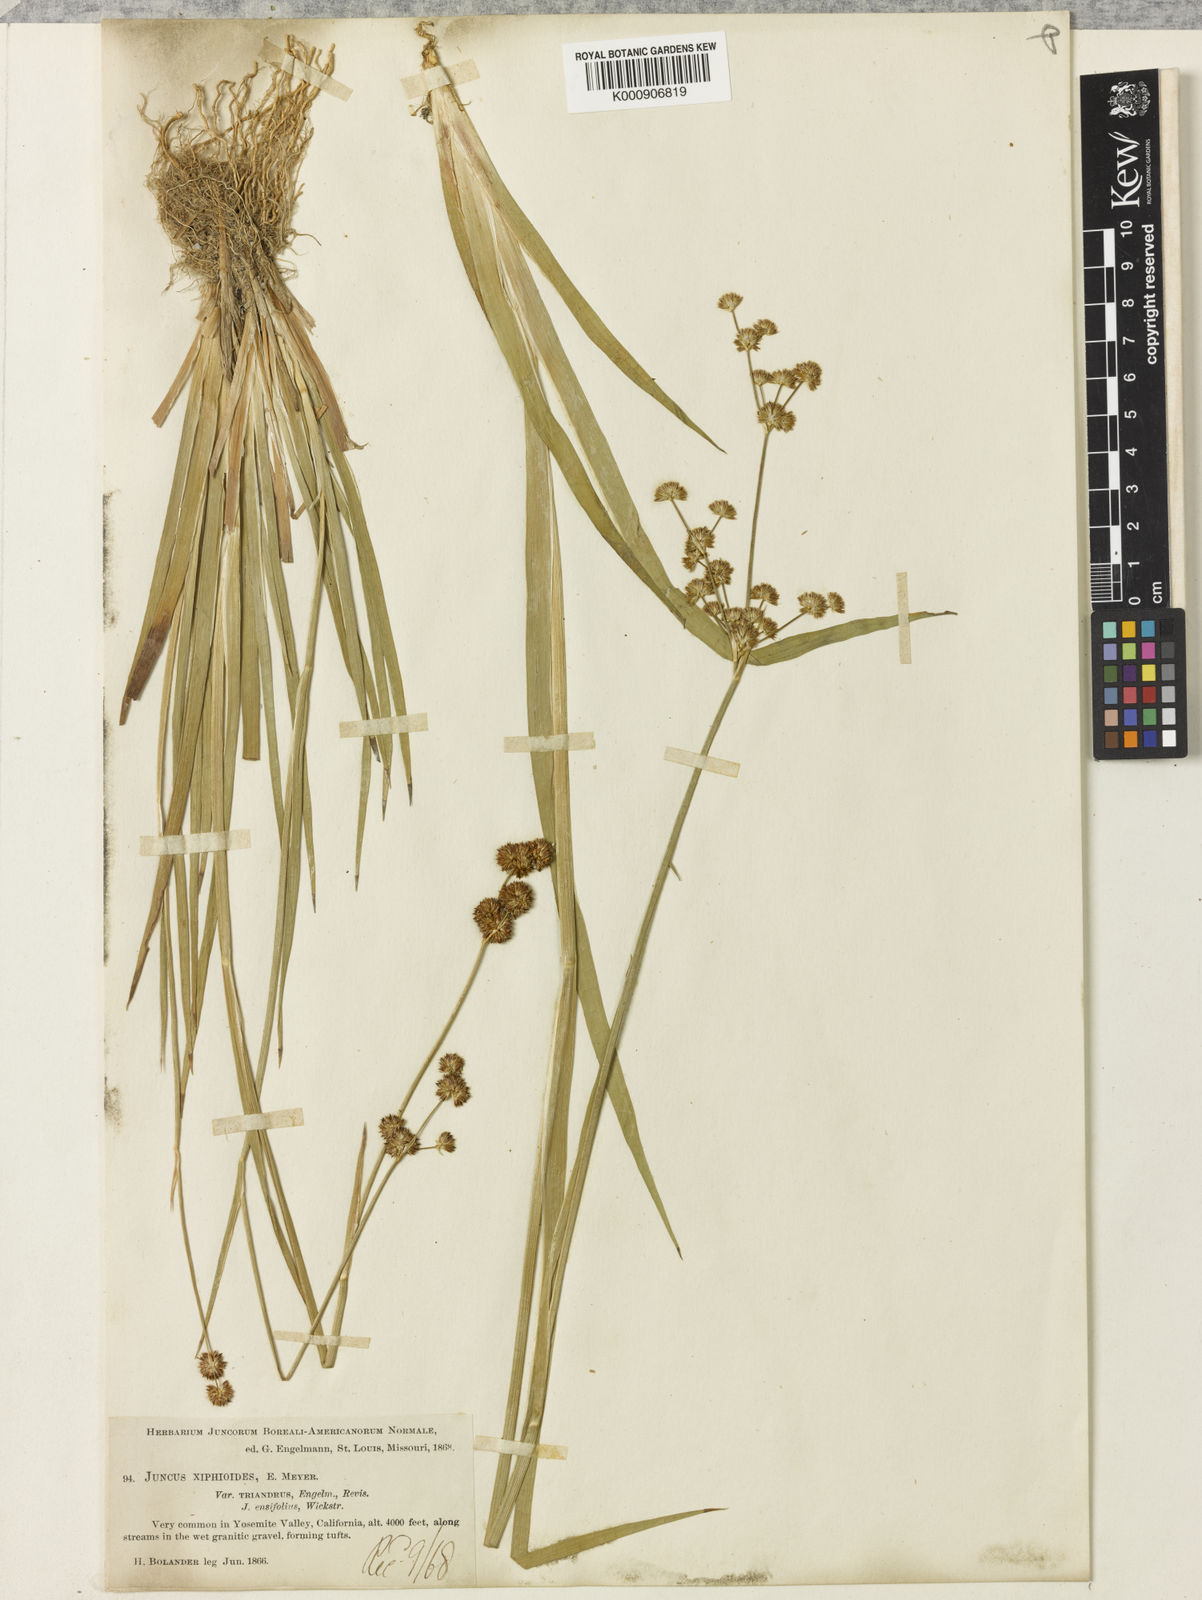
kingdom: Plantae
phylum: Tracheophyta
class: Liliopsida
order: Poales
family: Juncaceae
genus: Juncus
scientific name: Juncus ensifolius
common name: Sword-leaved rush
